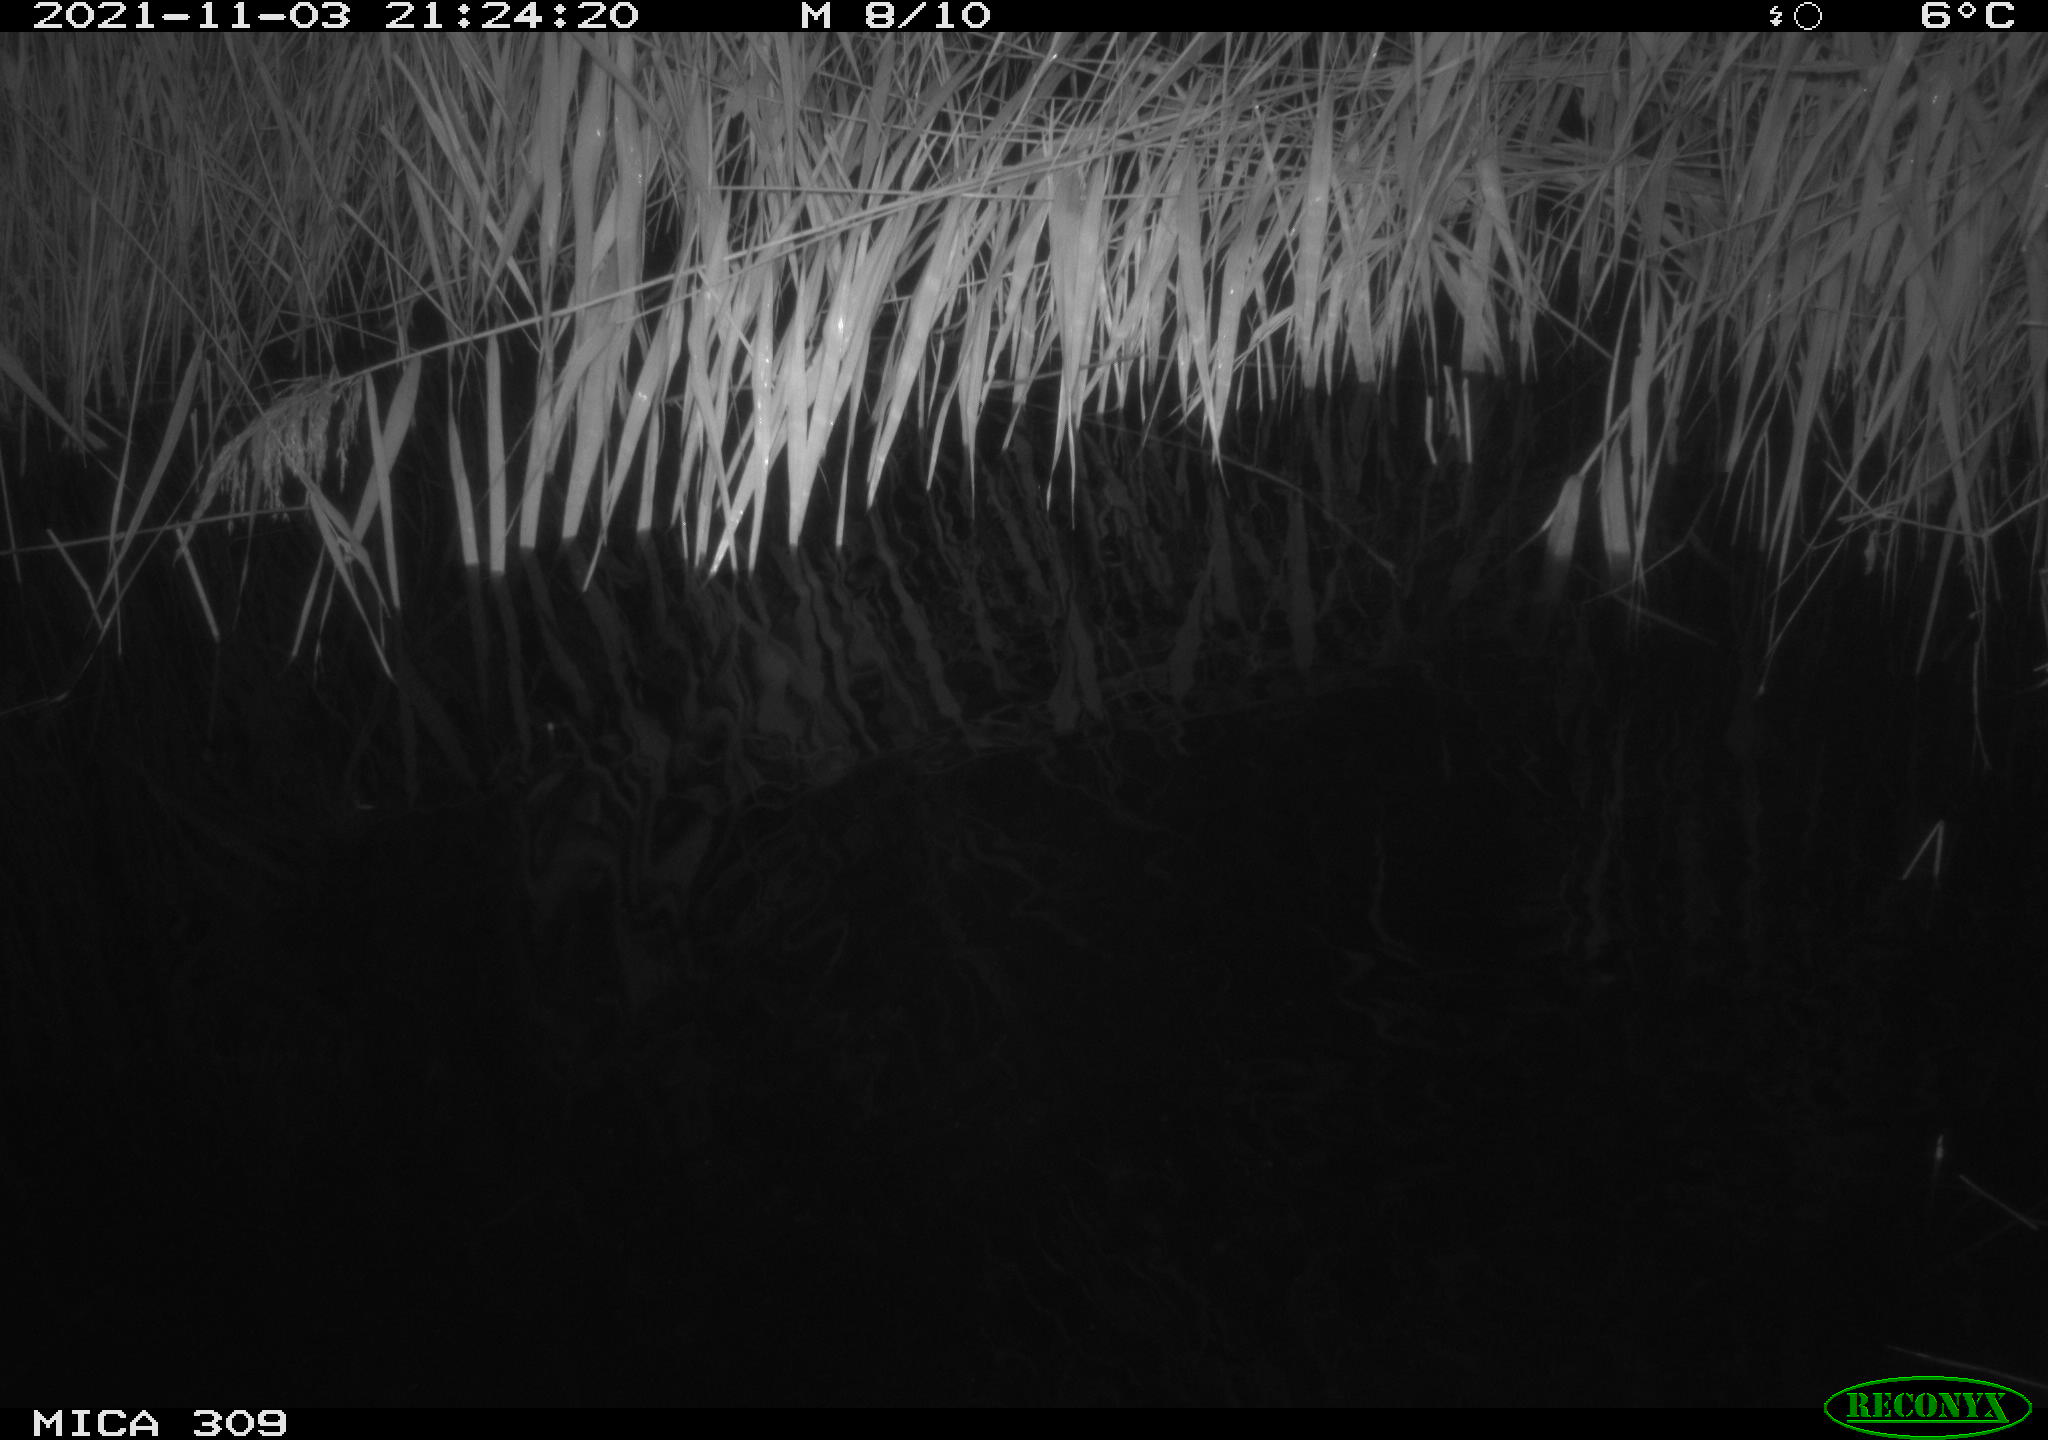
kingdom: Animalia
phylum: Chordata
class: Mammalia
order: Rodentia
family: Cricetidae
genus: Ondatra
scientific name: Ondatra zibethicus
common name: Muskrat
